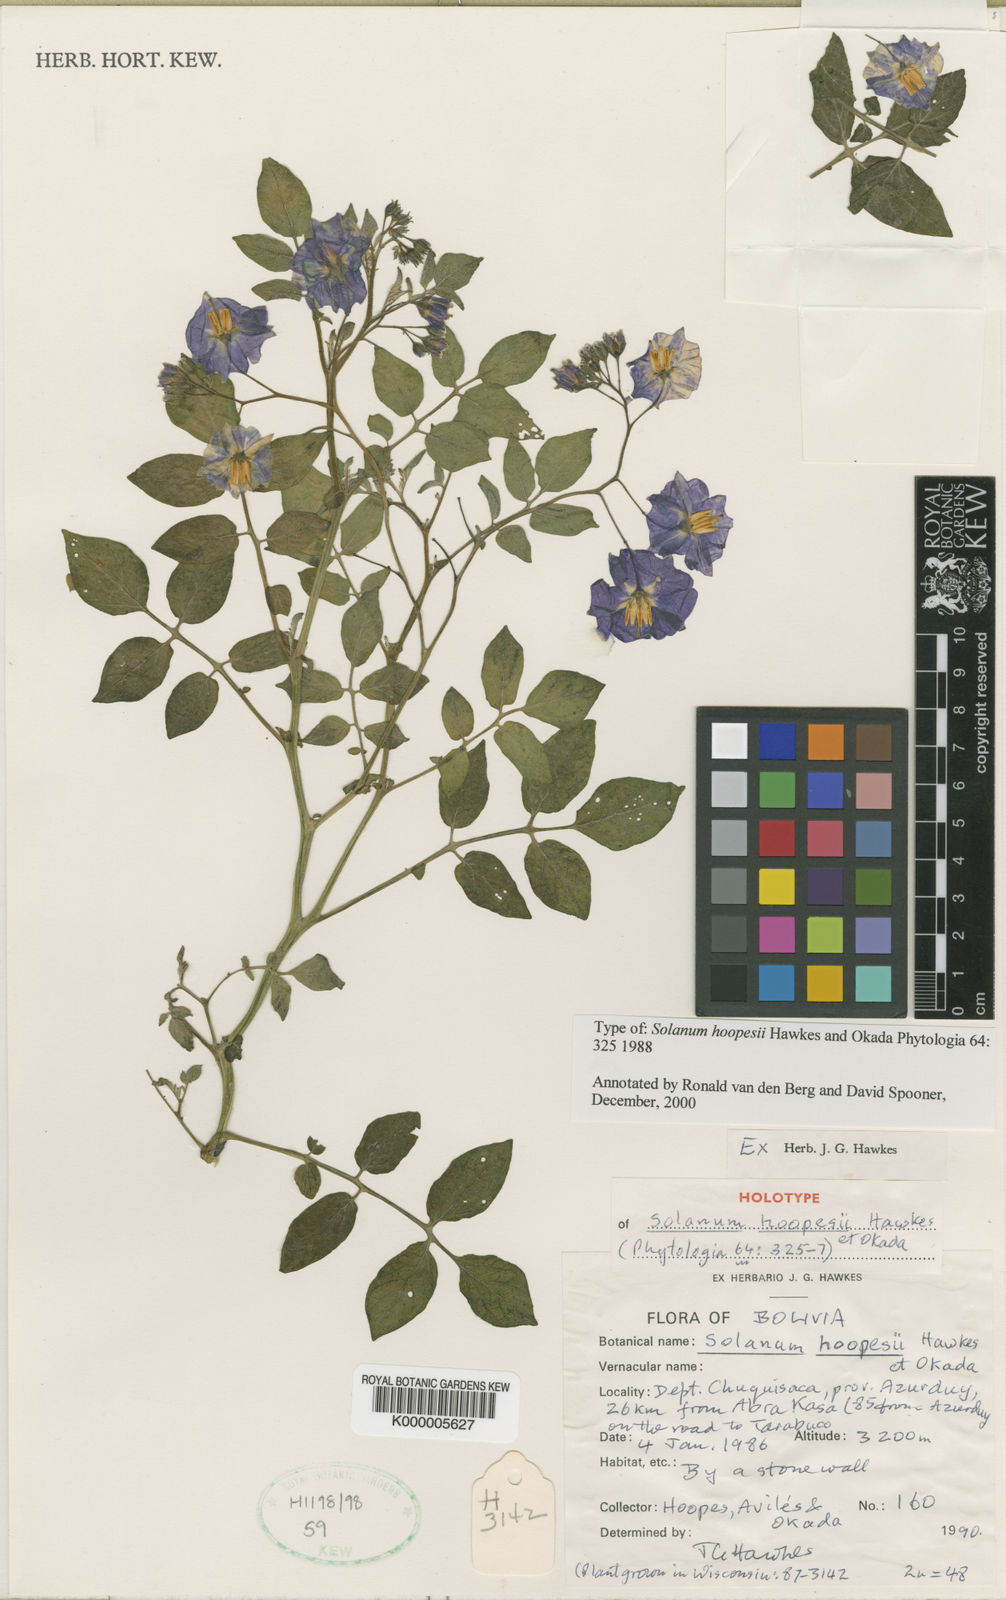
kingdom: Plantae
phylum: Tracheophyta
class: Magnoliopsida
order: Solanales
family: Solanaceae
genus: Solanum
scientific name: Solanum brevicaule
